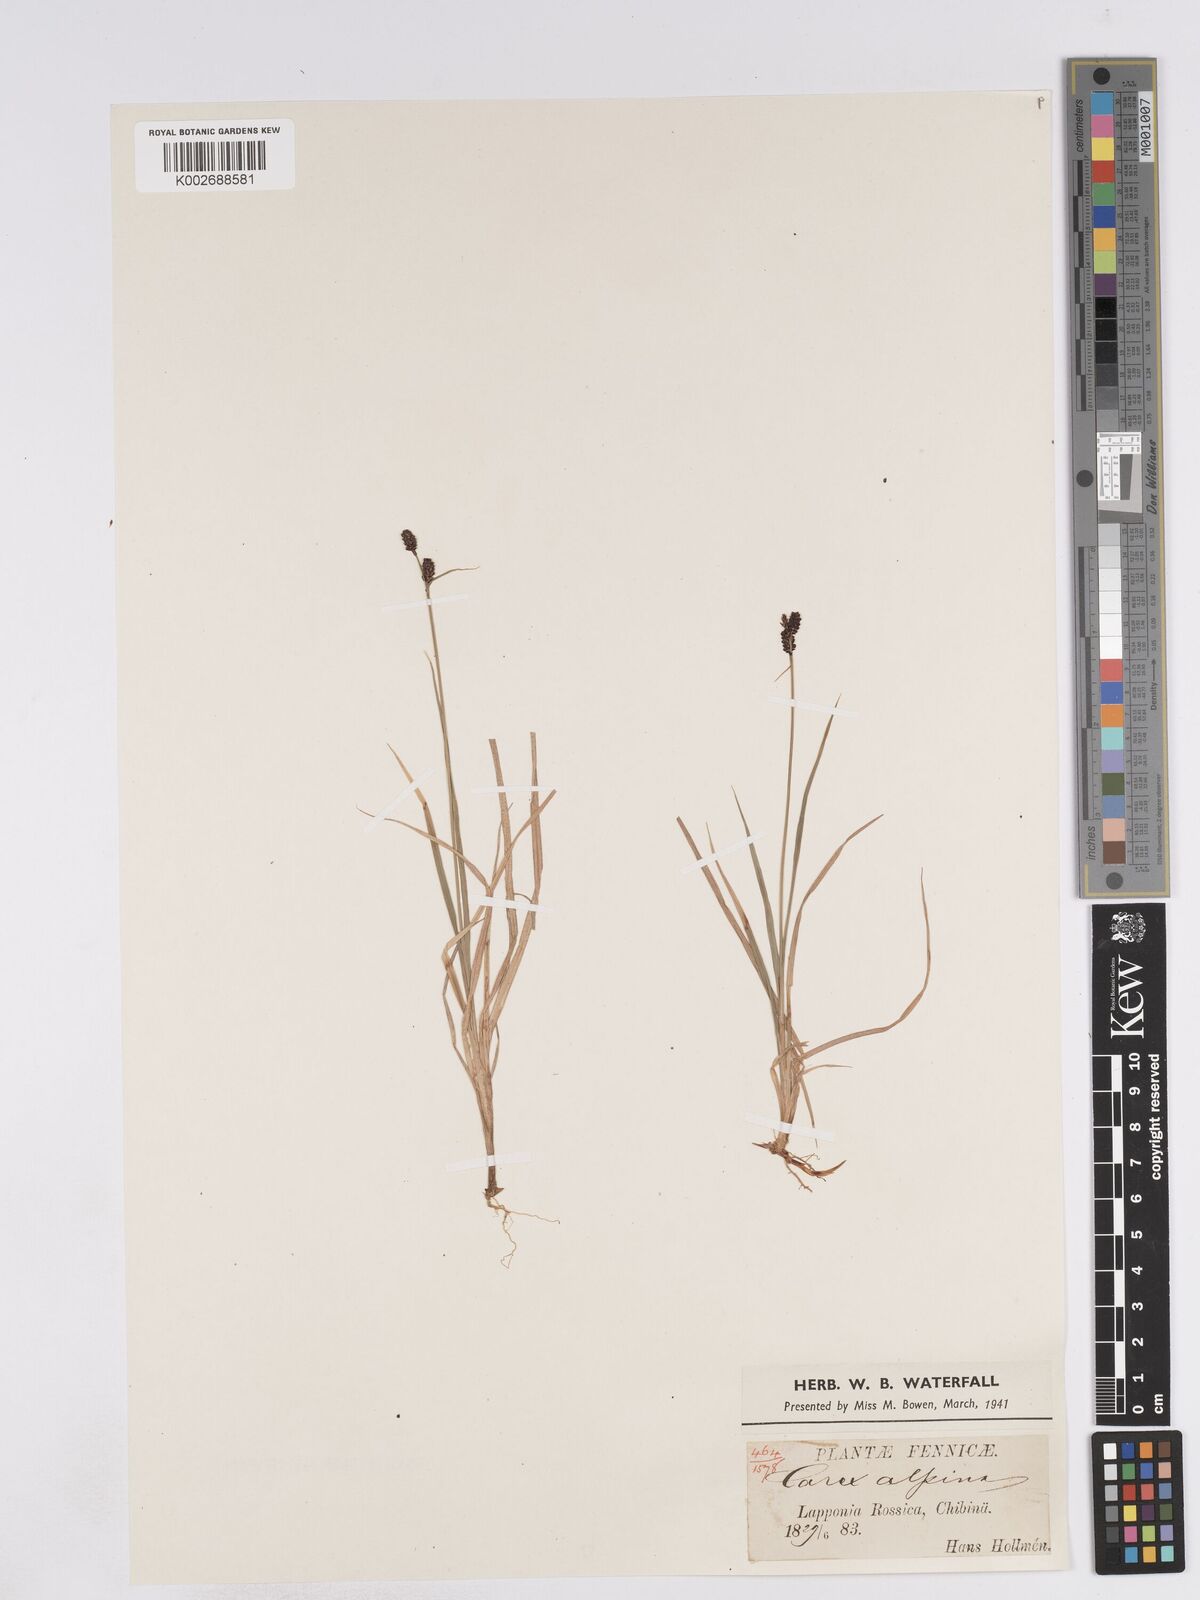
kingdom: Plantae
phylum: Tracheophyta
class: Liliopsida
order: Poales
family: Cyperaceae
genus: Carex
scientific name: Carex norvegica
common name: Close-headed alpine-sedge
